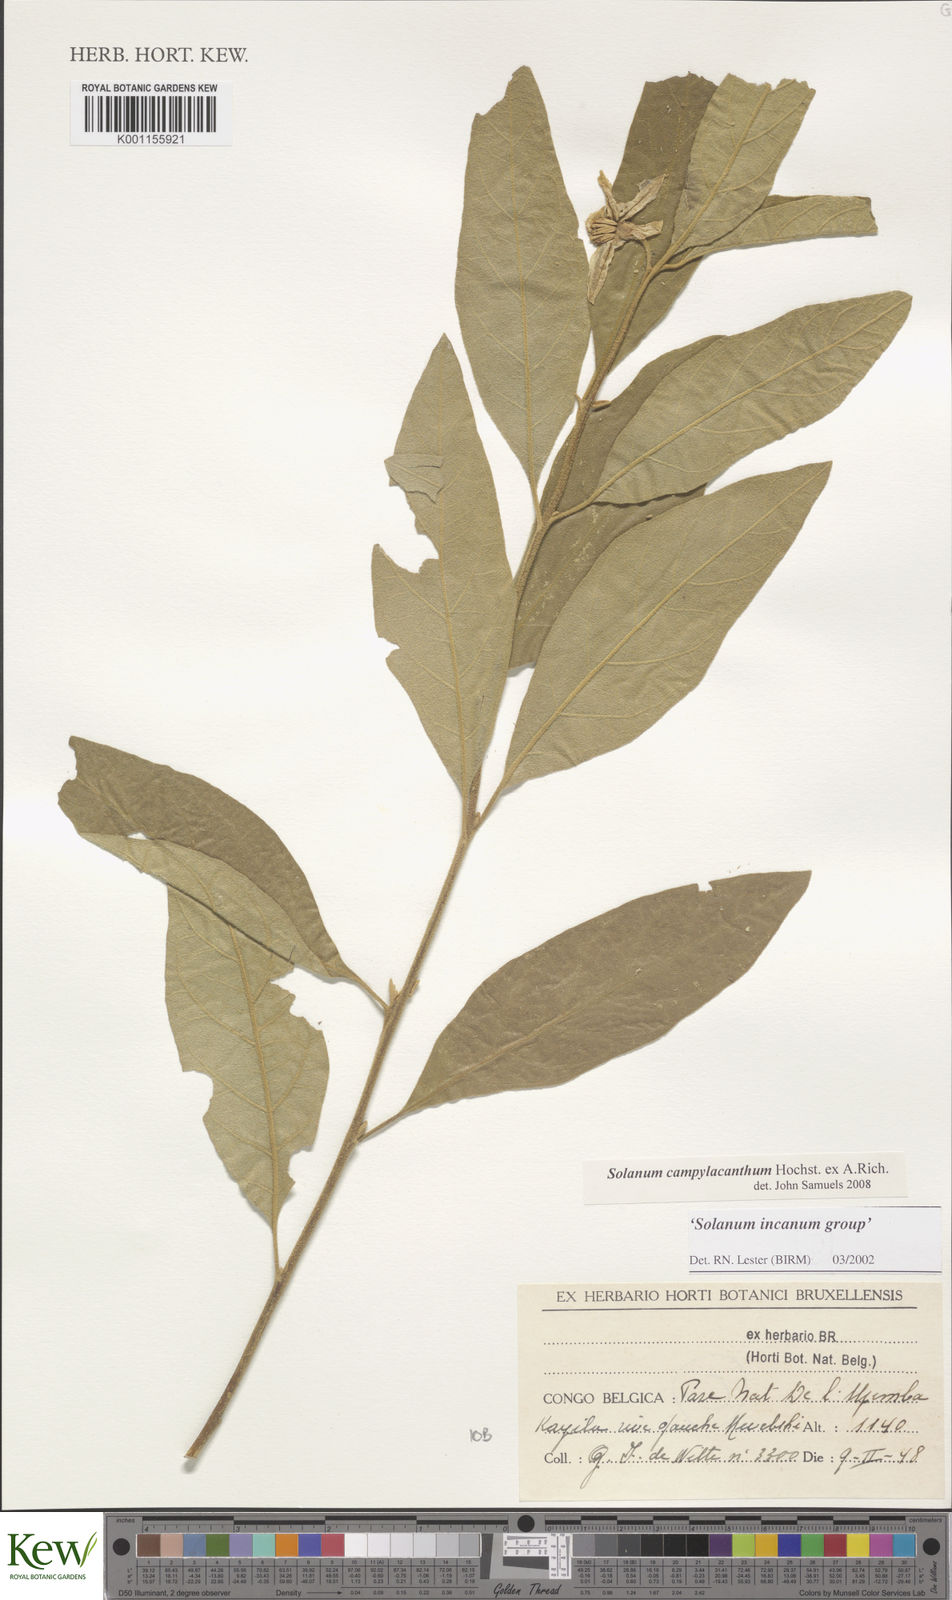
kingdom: Plantae
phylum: Tracheophyta
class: Magnoliopsida
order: Solanales
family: Solanaceae
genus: Solanum
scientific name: Solanum campylacanthum
